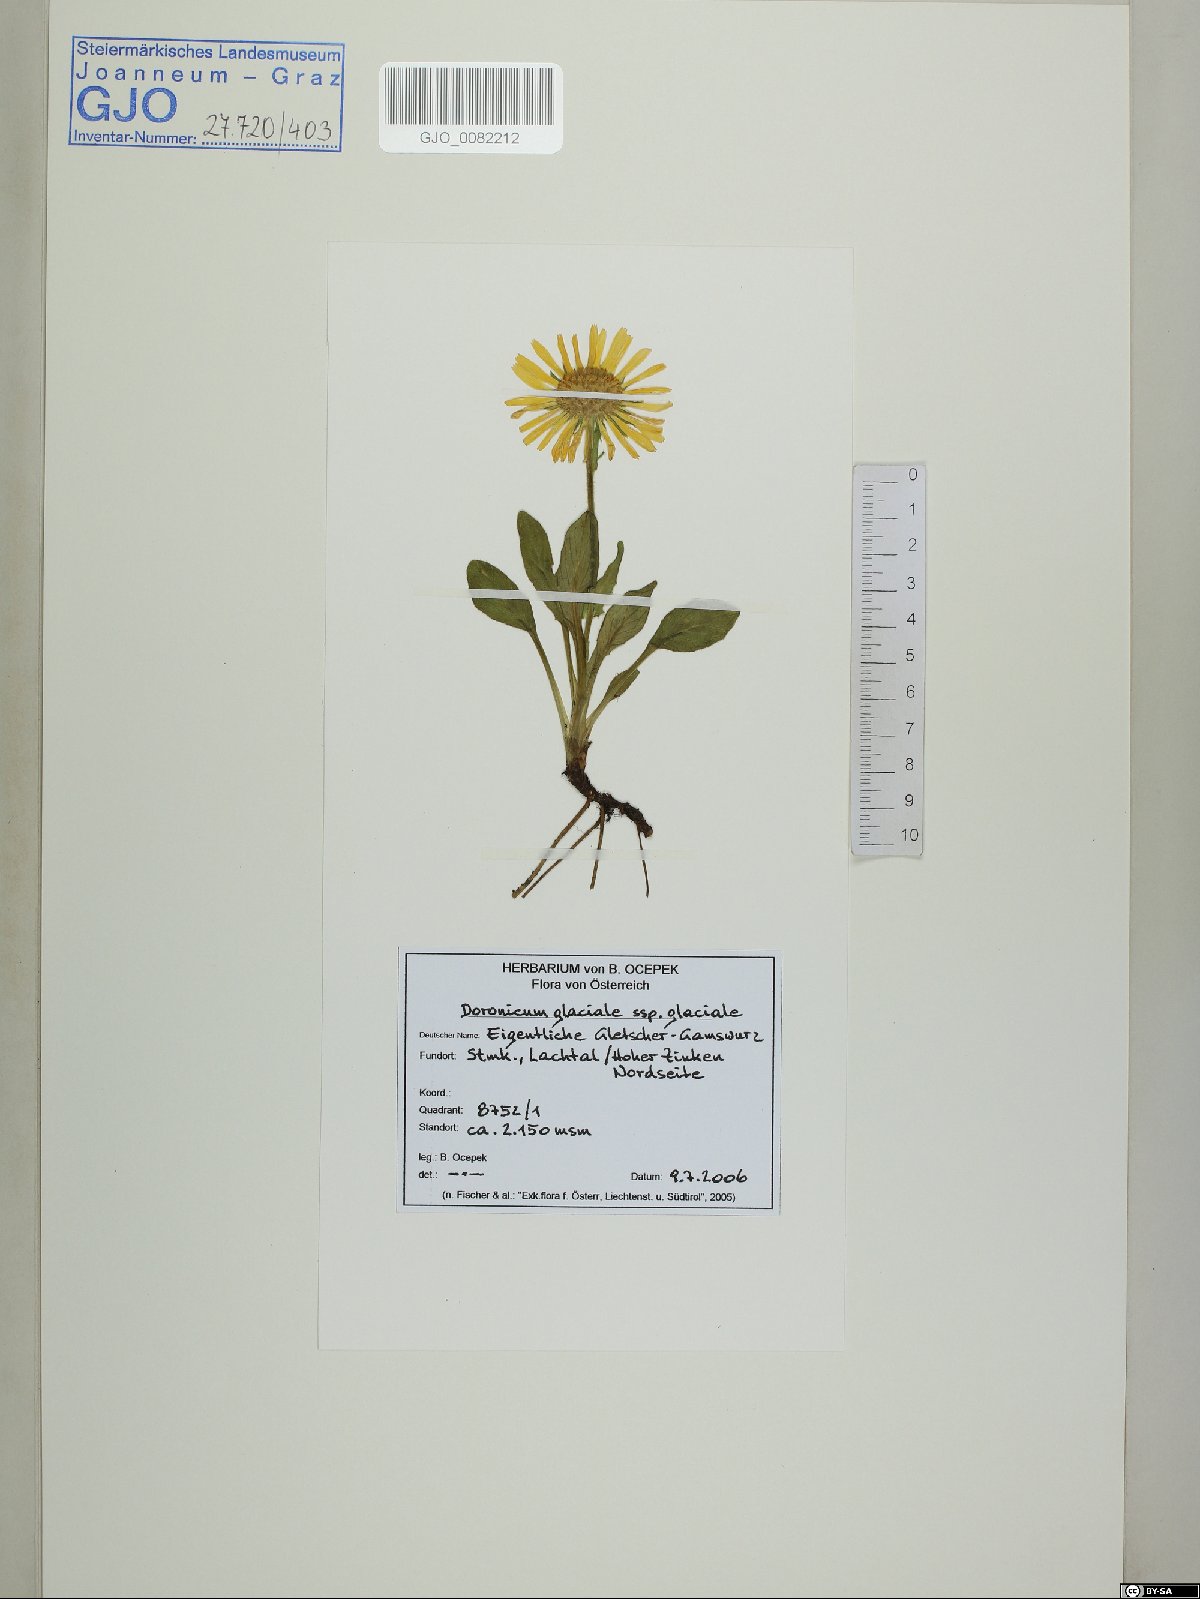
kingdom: Plantae
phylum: Tracheophyta
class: Magnoliopsida
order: Asterales
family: Asteraceae
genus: Doronicum
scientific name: Doronicum glaciale
